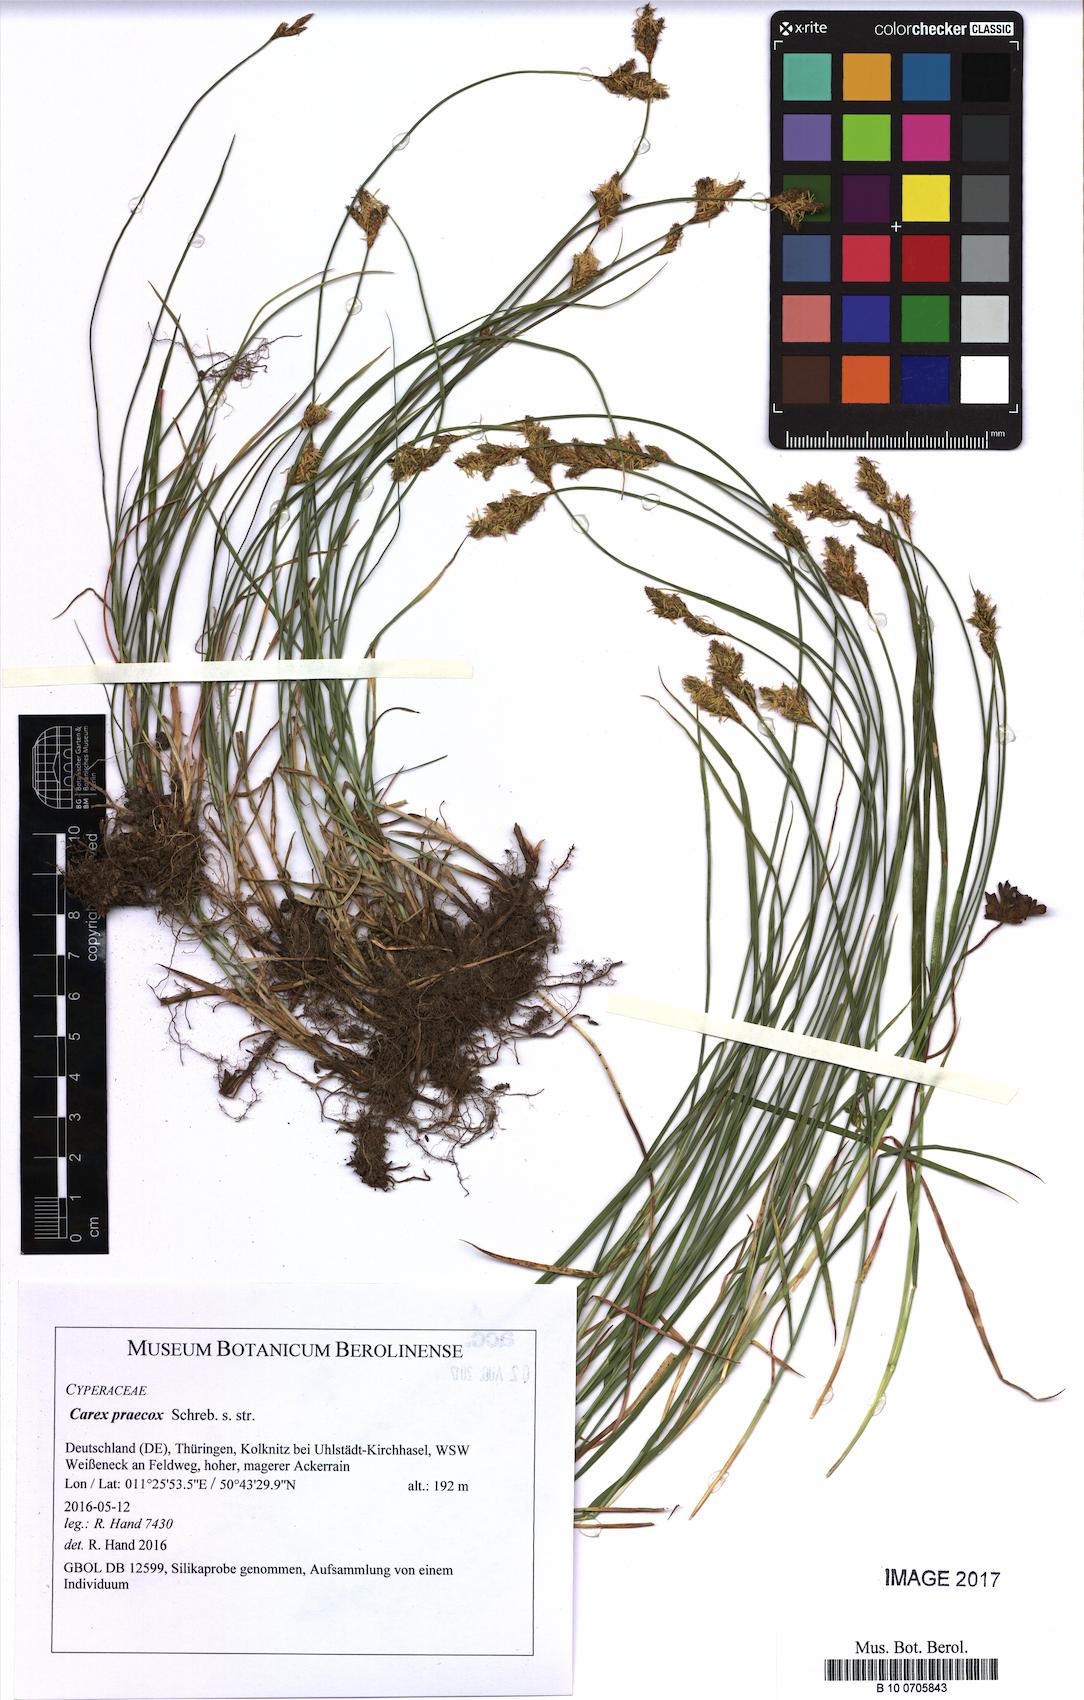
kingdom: Plantae
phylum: Tracheophyta
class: Liliopsida
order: Poales
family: Cyperaceae
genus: Carex
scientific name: Carex praecox
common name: Early sedge
